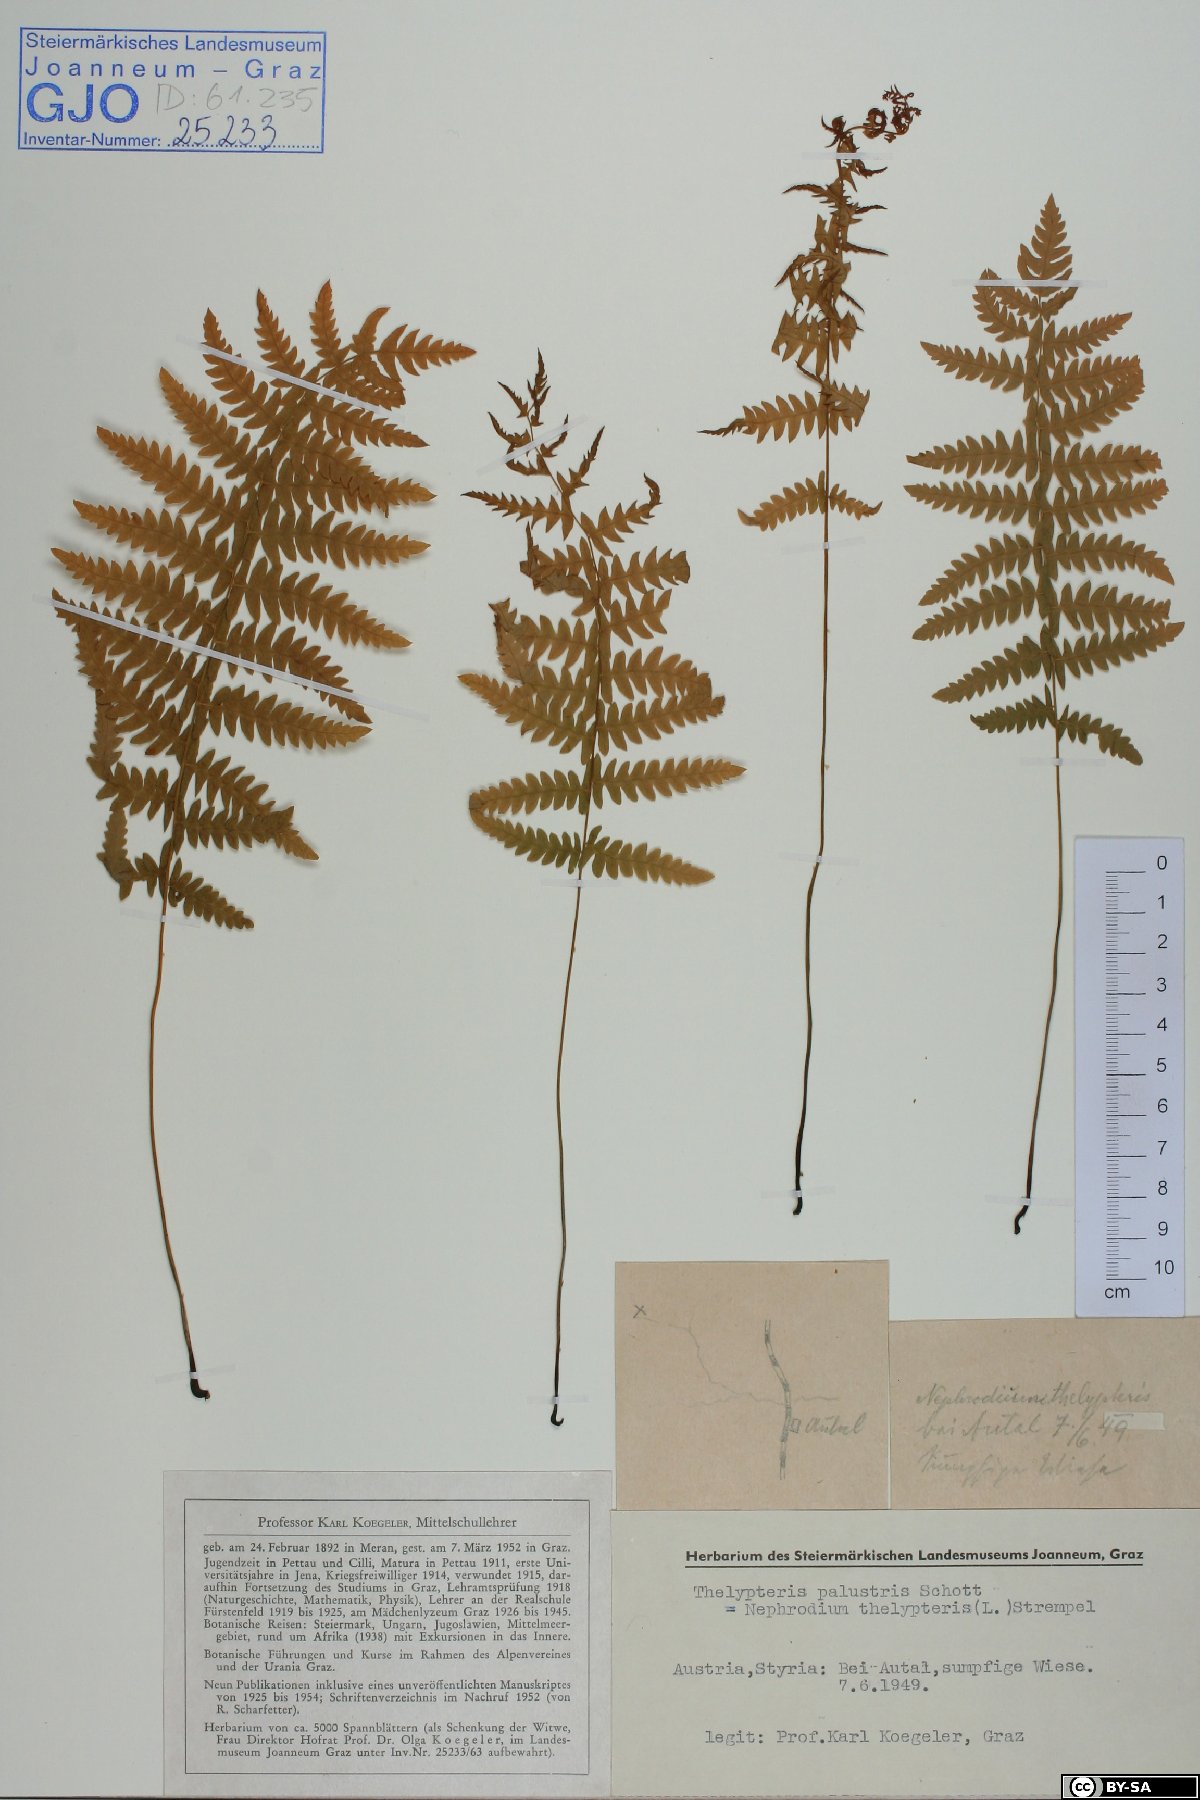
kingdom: Plantae
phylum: Tracheophyta
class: Polypodiopsida
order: Polypodiales
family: Thelypteridaceae
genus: Thelypteris
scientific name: Thelypteris palustris
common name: Marsh fern
